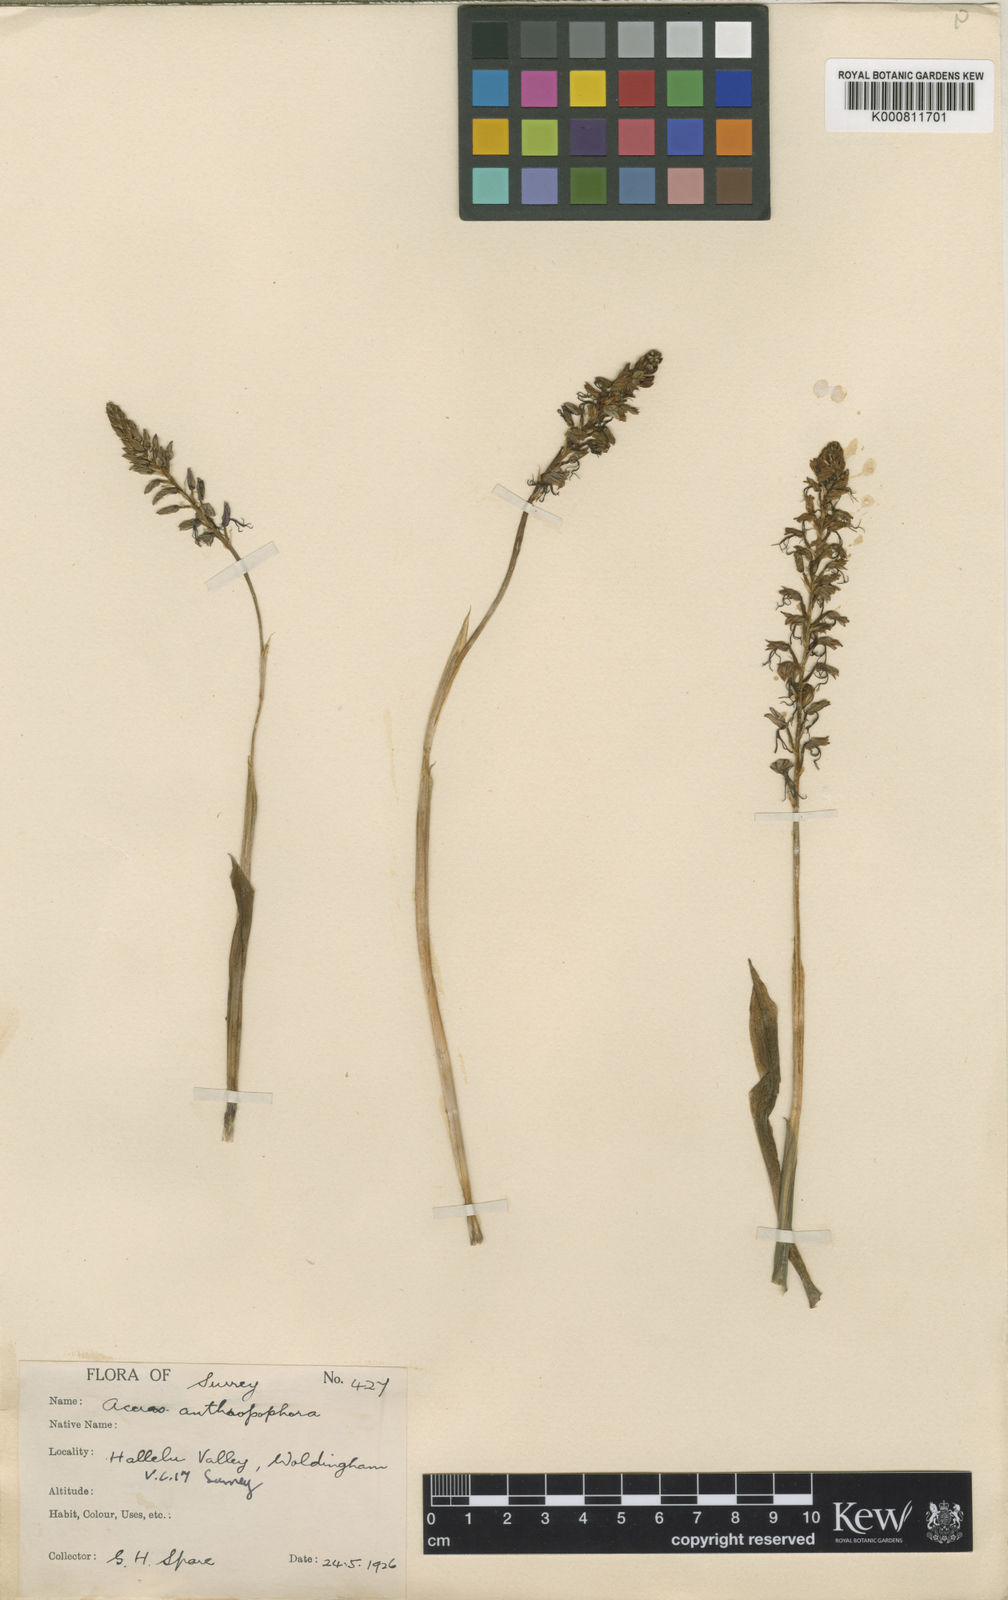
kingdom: Plantae
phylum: Tracheophyta
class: Liliopsida
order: Asparagales
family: Orchidaceae
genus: Orchis
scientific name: Orchis
